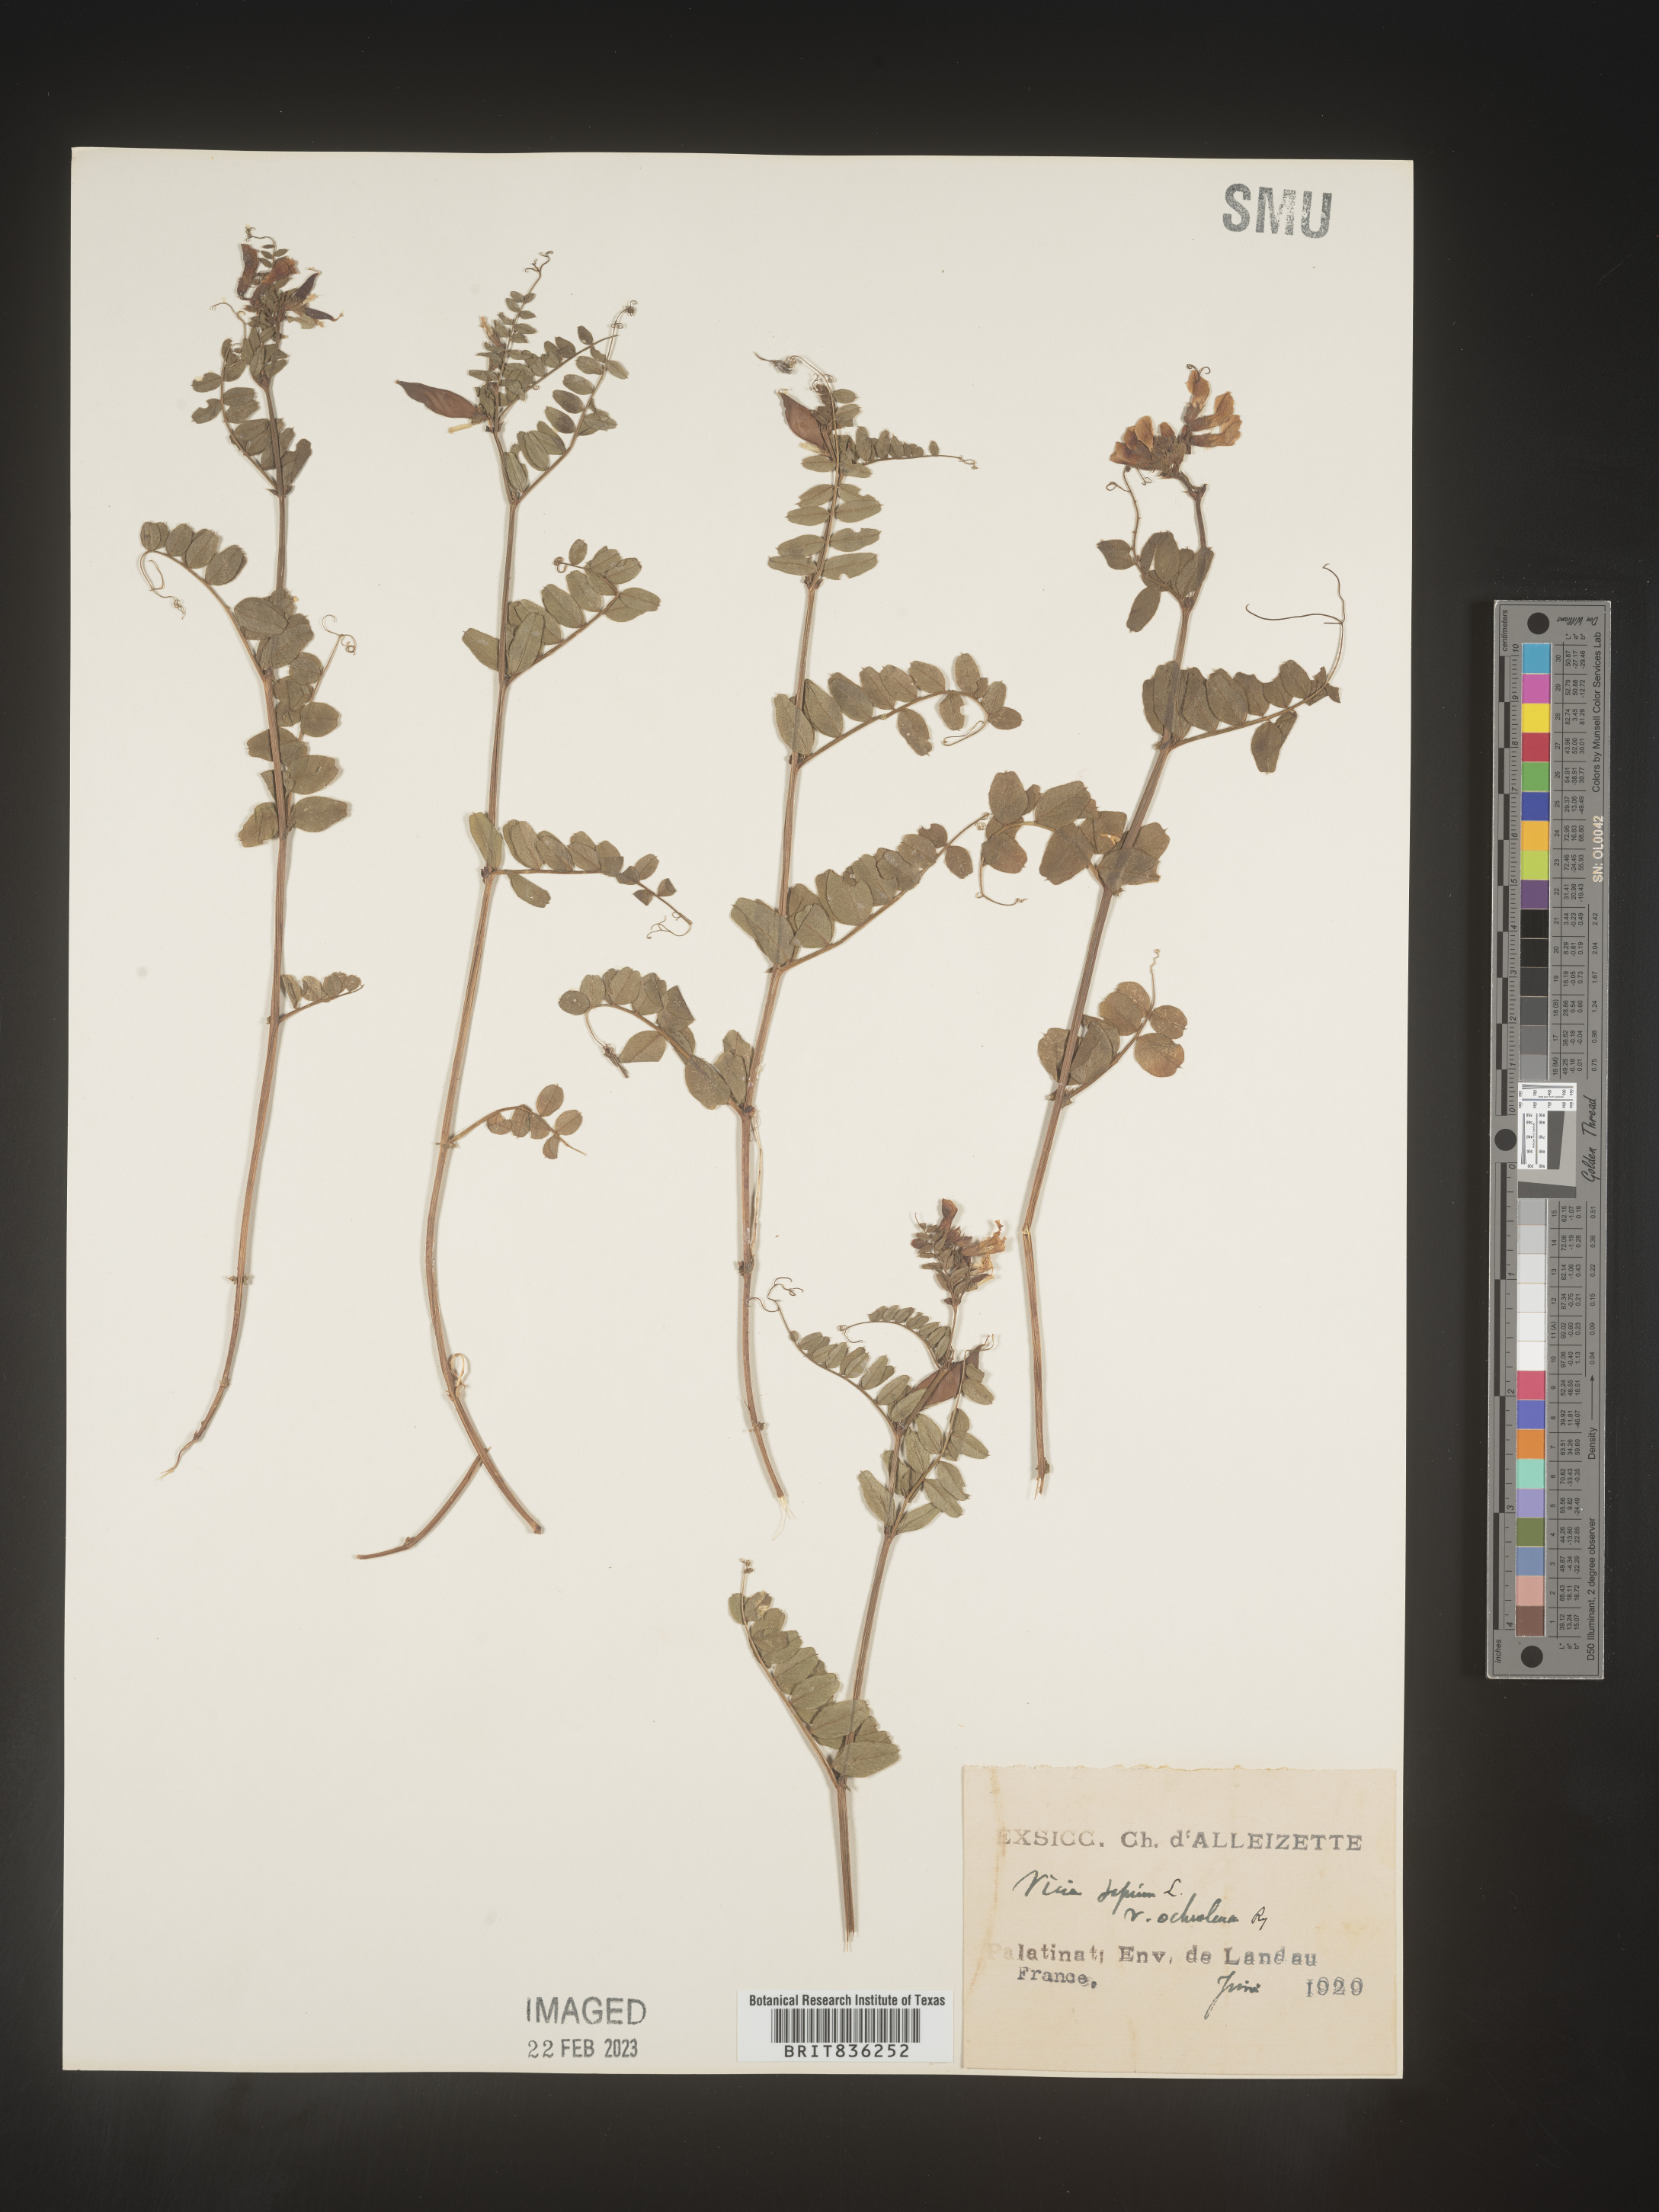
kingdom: Plantae
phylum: Tracheophyta
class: Magnoliopsida
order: Fabales
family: Fabaceae
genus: Vicia
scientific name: Vicia
